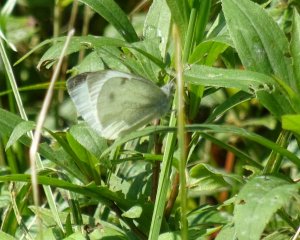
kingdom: Animalia
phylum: Arthropoda
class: Insecta
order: Lepidoptera
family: Pieridae
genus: Pieris
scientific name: Pieris rapae
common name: Cabbage White
